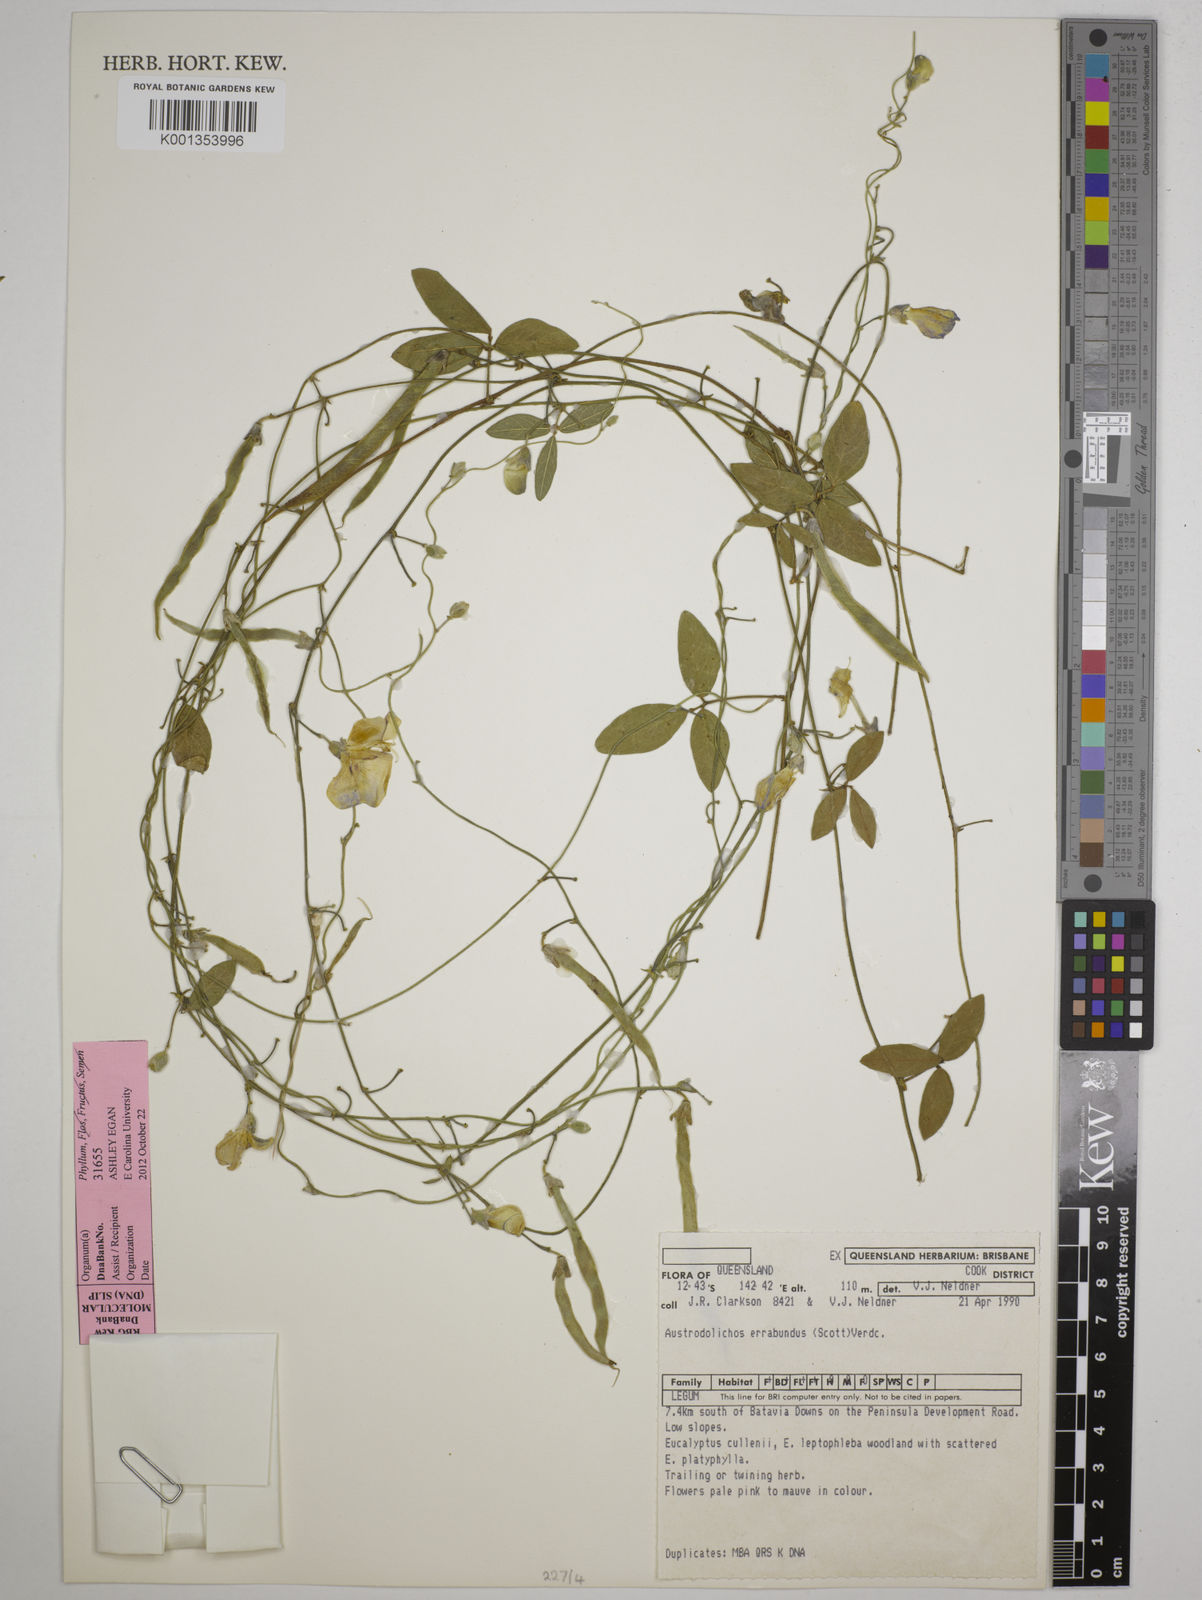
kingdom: Plantae
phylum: Tracheophyta
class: Magnoliopsida
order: Fabales
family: Fabaceae
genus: Austrodolichos
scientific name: Austrodolichos errabundus
